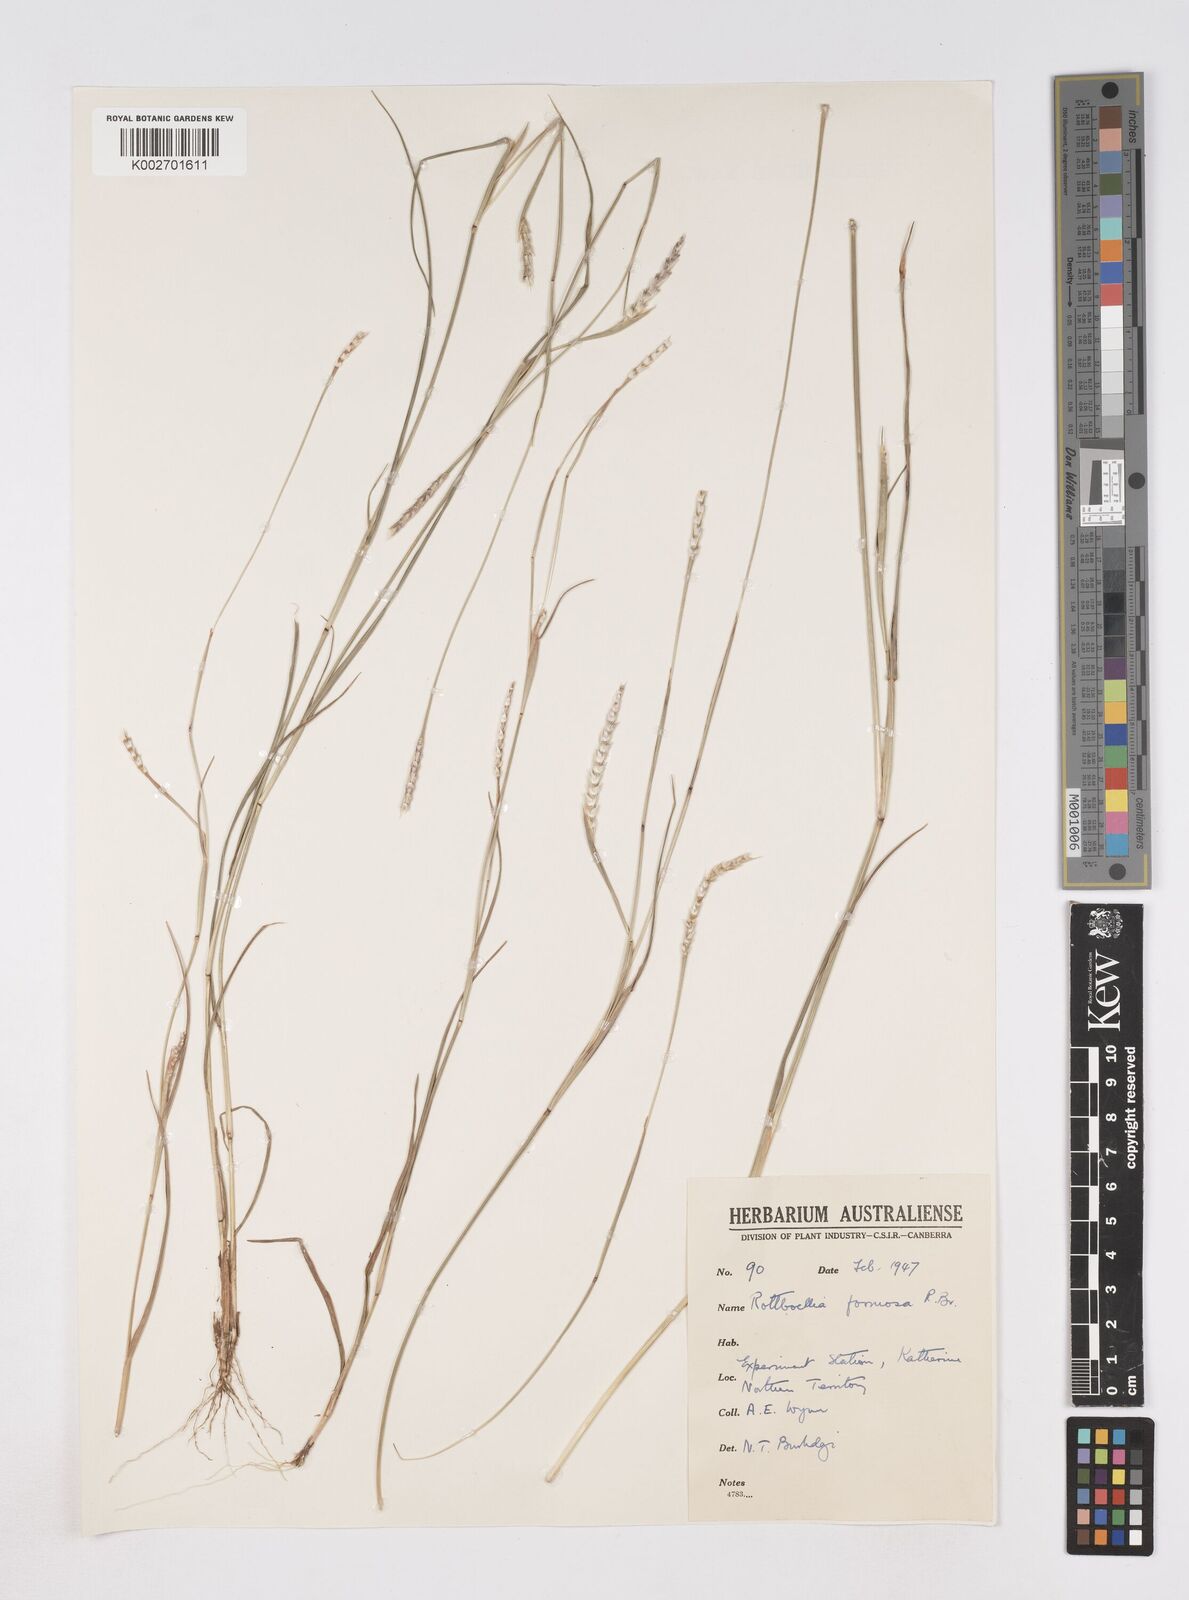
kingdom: Plantae
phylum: Tracheophyta
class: Liliopsida
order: Poales
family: Poaceae
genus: Heteropholis
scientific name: Heteropholis
